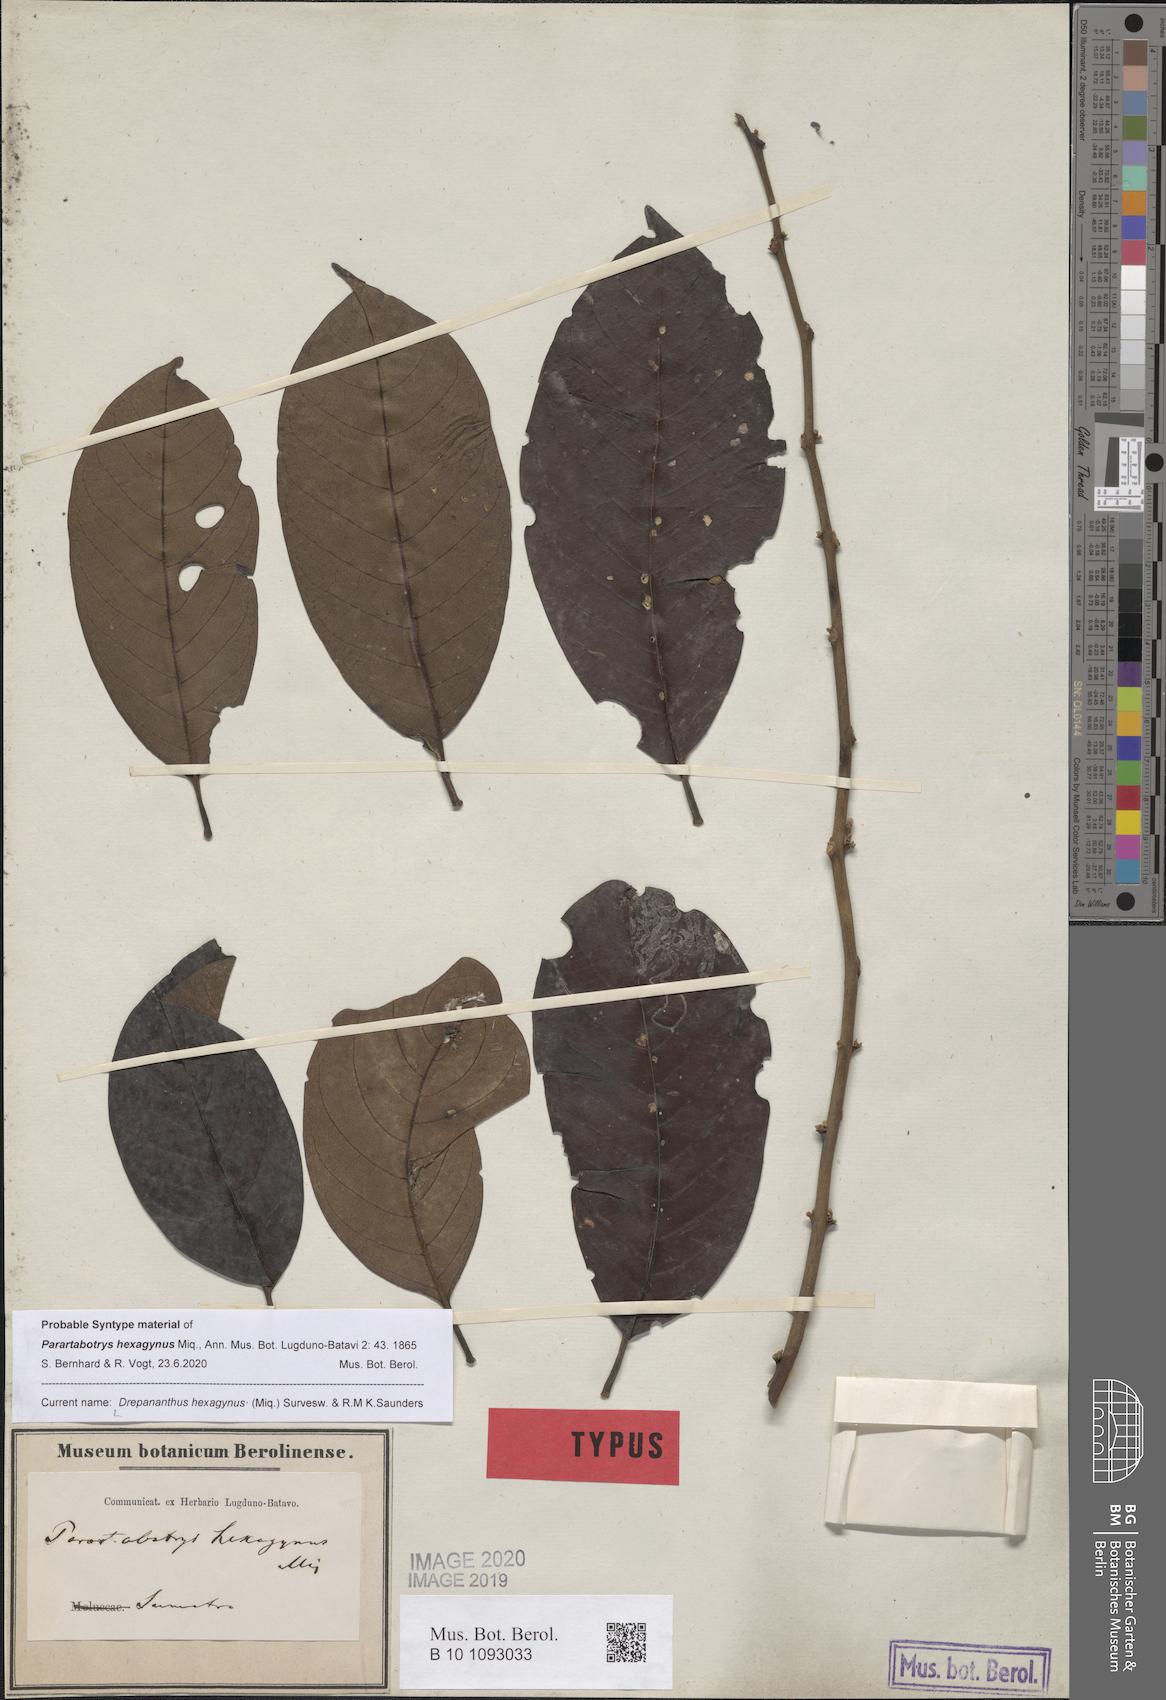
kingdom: Plantae
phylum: Tracheophyta
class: Magnoliopsida
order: Magnoliales
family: Annonaceae
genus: Drepananthus
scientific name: Drepananthus hexagynus
